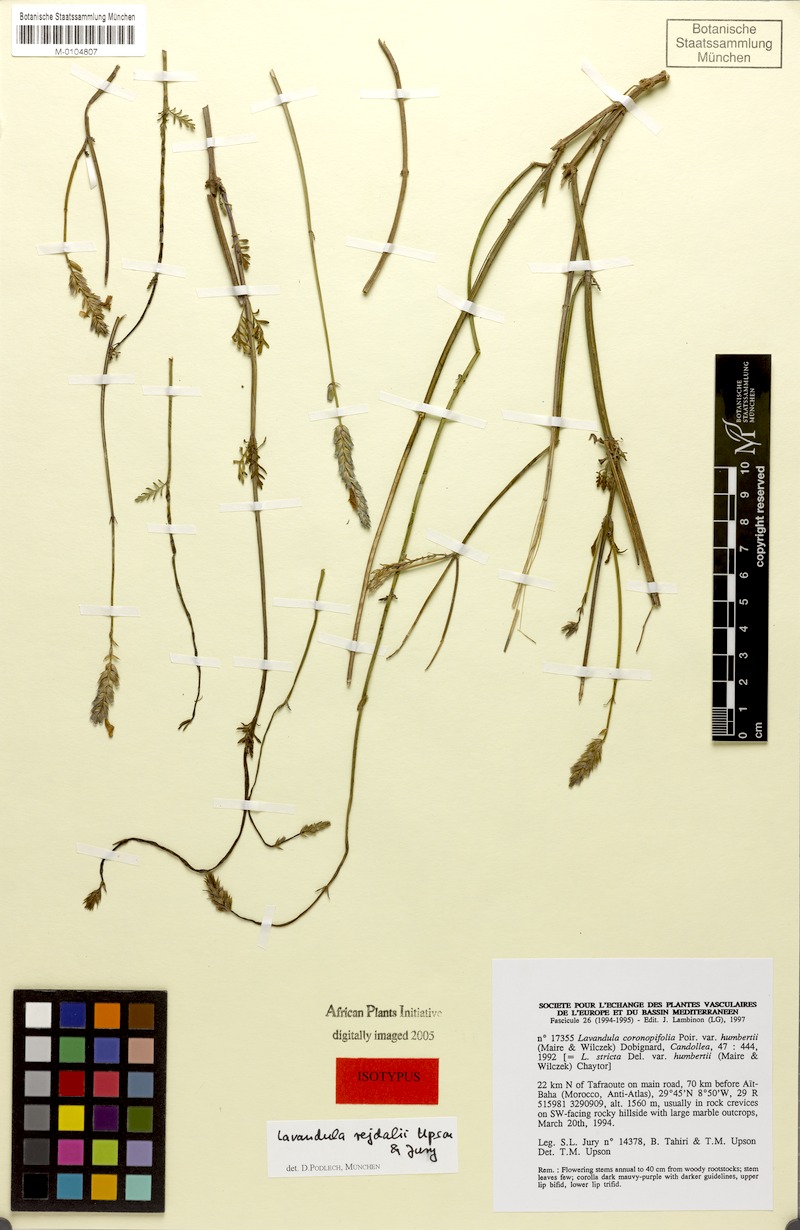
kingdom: Plantae
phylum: Tracheophyta
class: Magnoliopsida
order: Lamiales
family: Lamiaceae
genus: Lavandula
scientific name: Lavandula rejdalii
